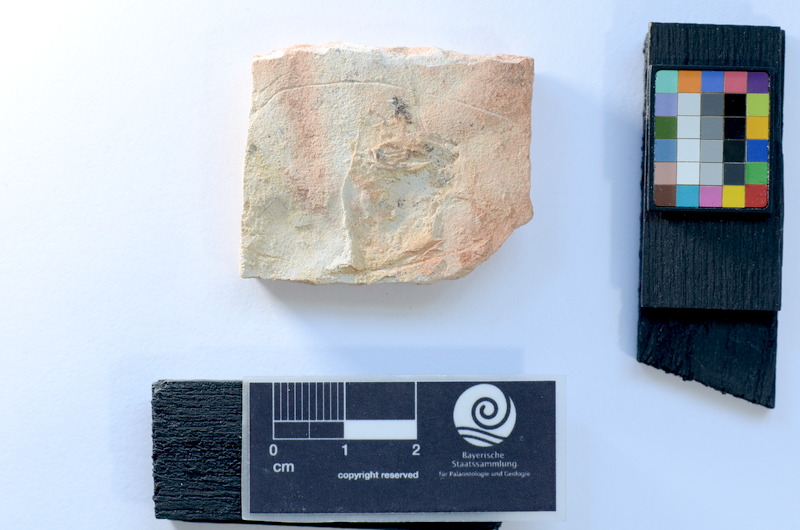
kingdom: Animalia
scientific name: Animalia
